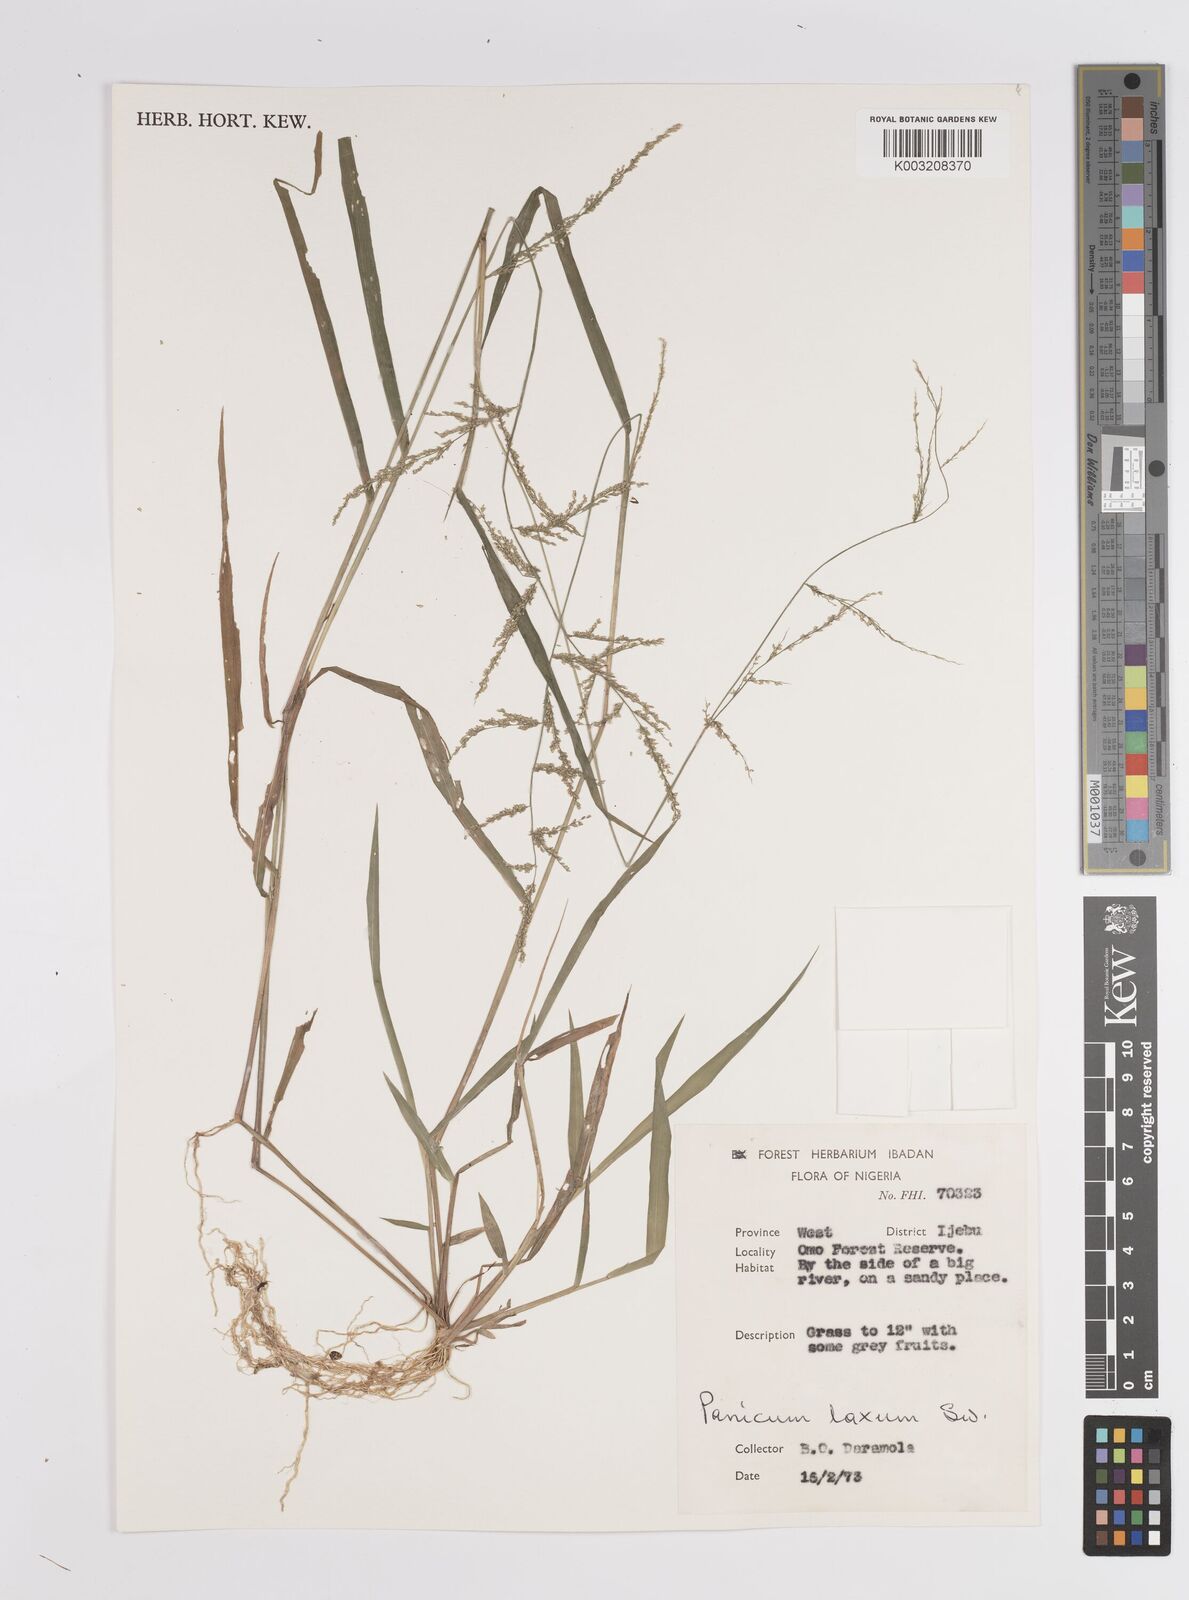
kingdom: Plantae
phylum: Tracheophyta
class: Liliopsida
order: Poales
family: Poaceae
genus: Steinchisma
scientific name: Steinchisma laxum
